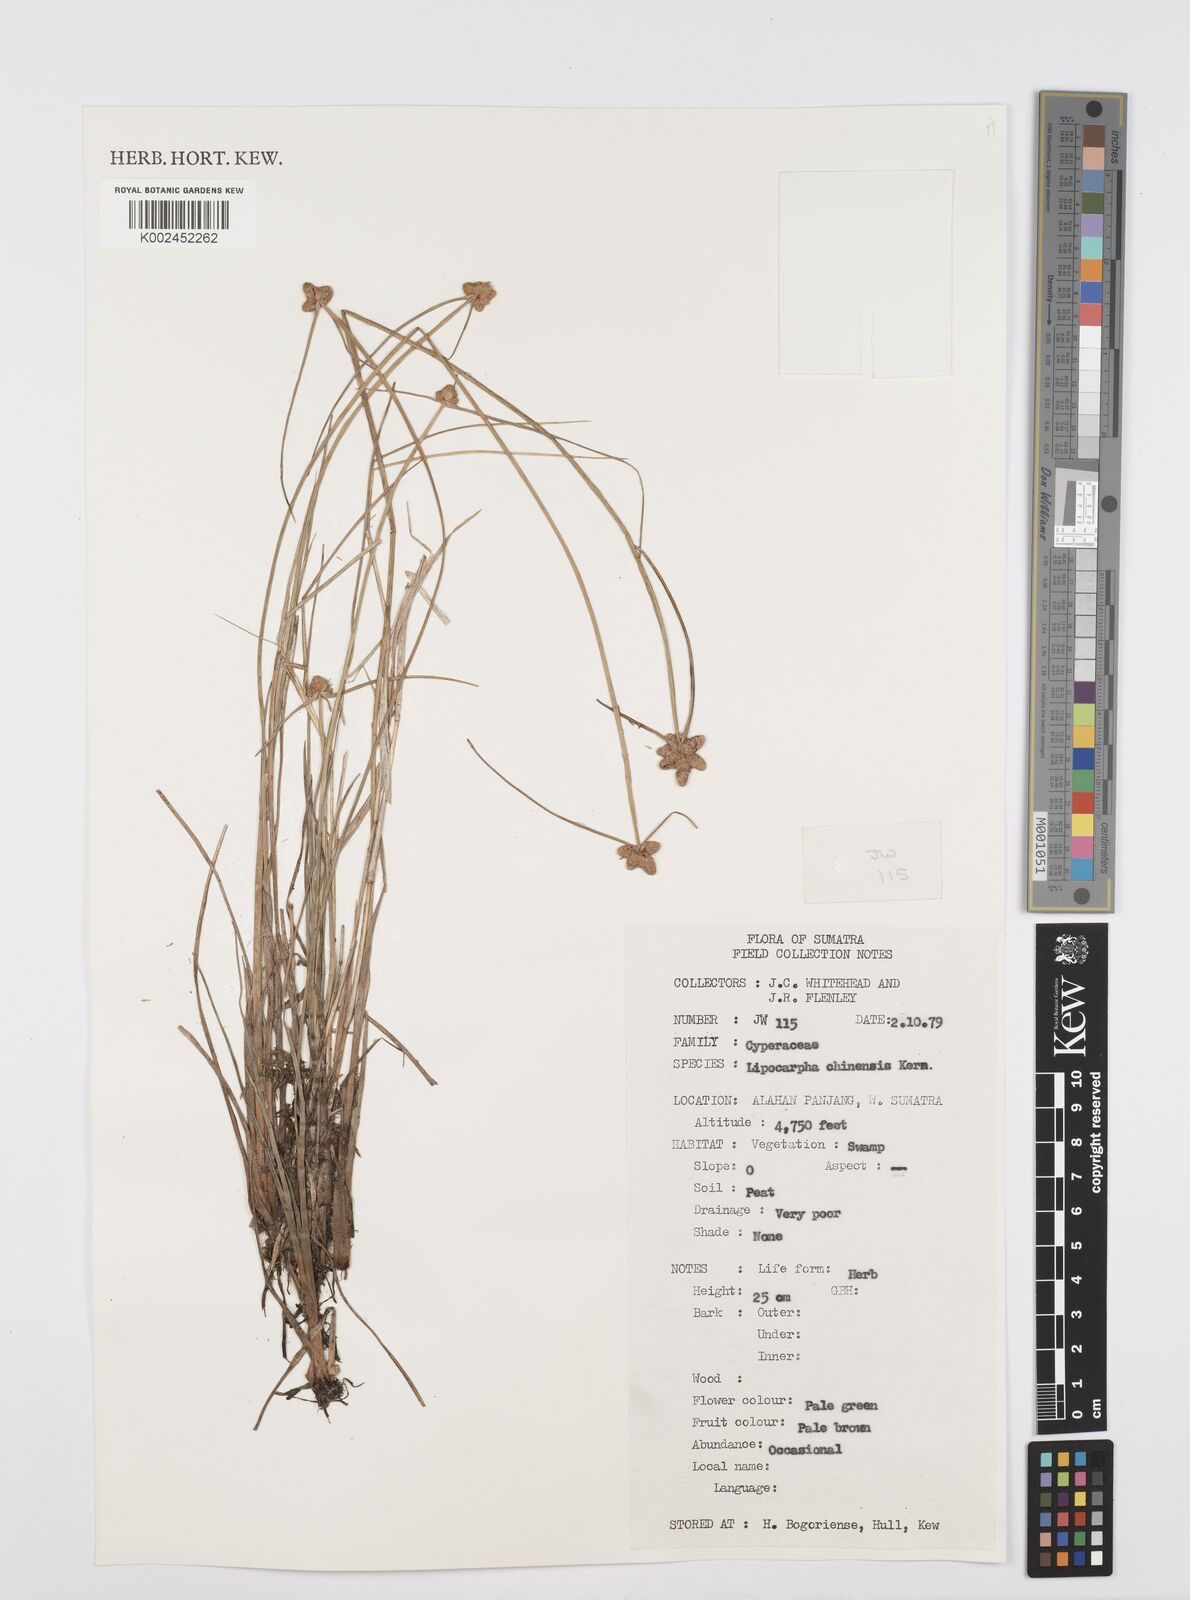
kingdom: Plantae
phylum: Tracheophyta
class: Liliopsida
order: Poales
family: Cyperaceae
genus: Cyperus
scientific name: Cyperus
